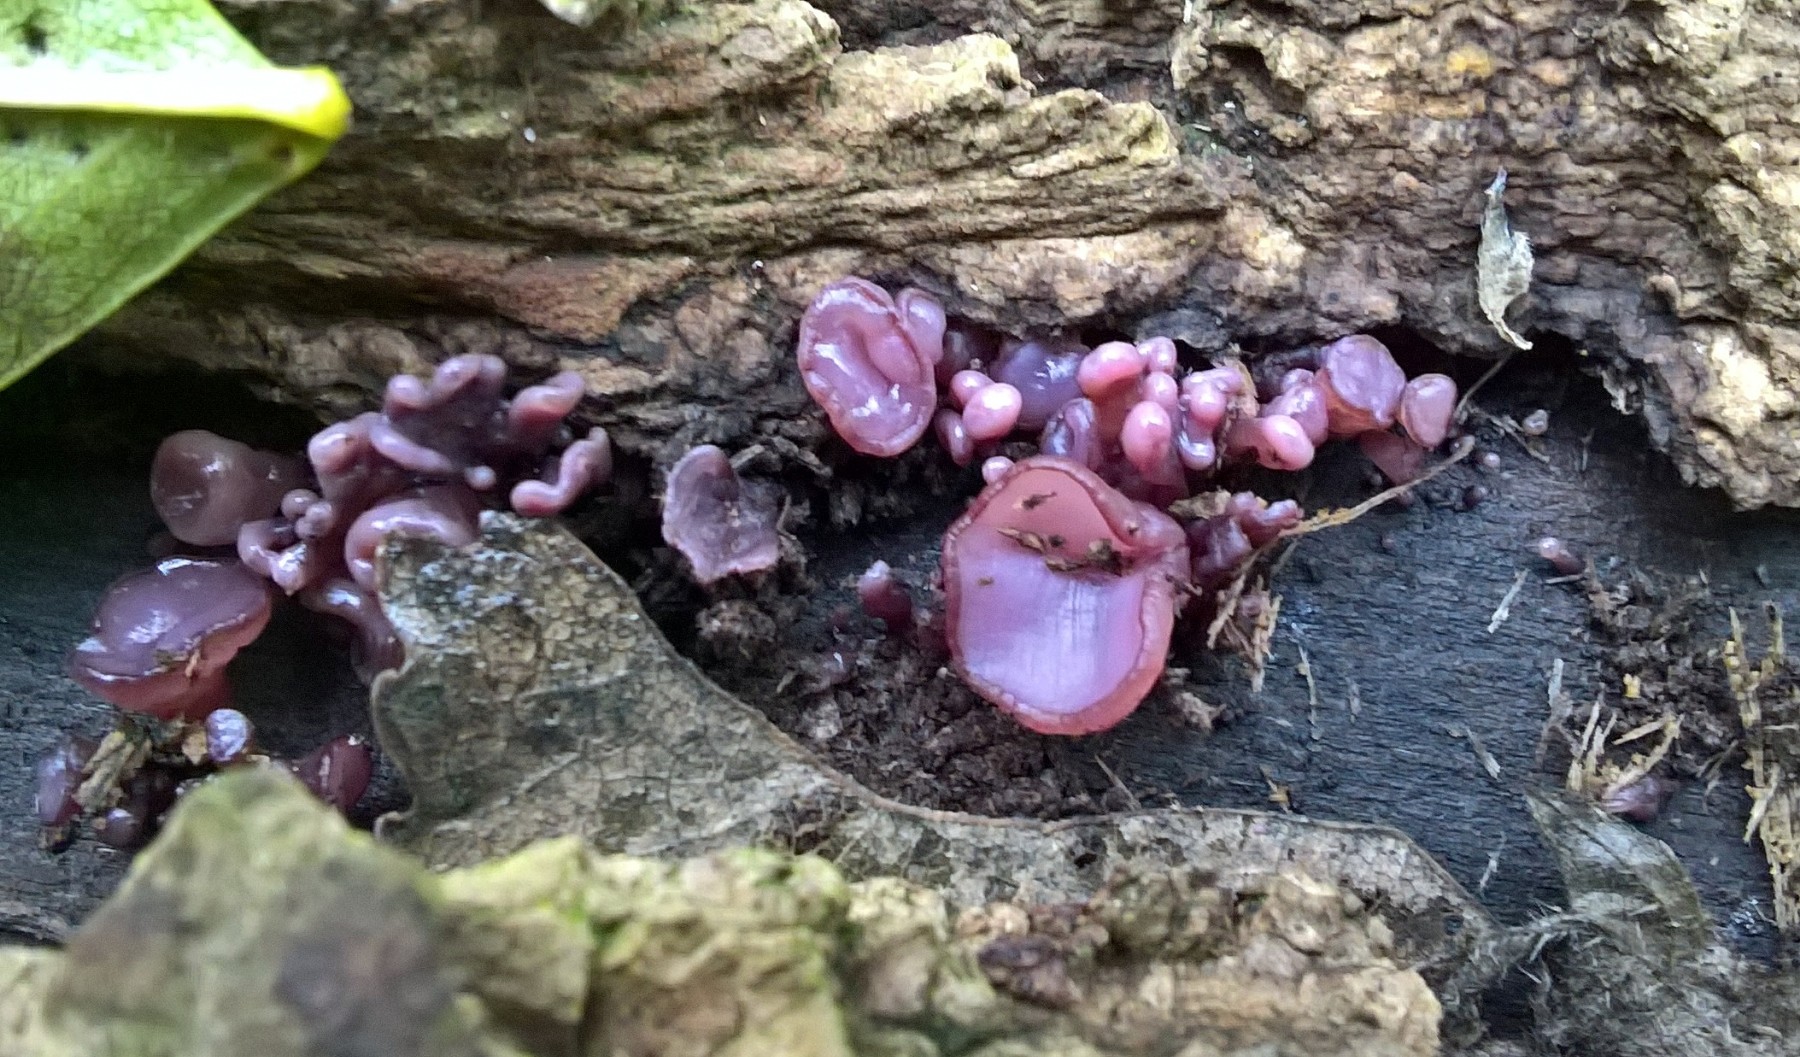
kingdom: Fungi
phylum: Ascomycota
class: Leotiomycetes
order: Helotiales
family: Gelatinodiscaceae
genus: Ascocoryne
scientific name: Ascocoryne sarcoides
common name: rødlilla sejskive
